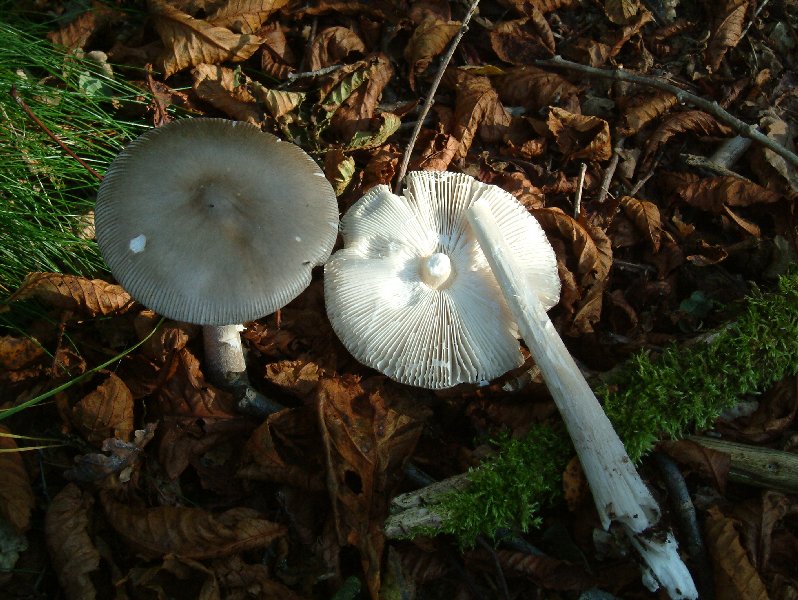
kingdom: Fungi
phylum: Basidiomycota
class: Agaricomycetes
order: Agaricales
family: Amanitaceae
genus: Amanita
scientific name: Amanita vaginata
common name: grå kam-fluesvamp
